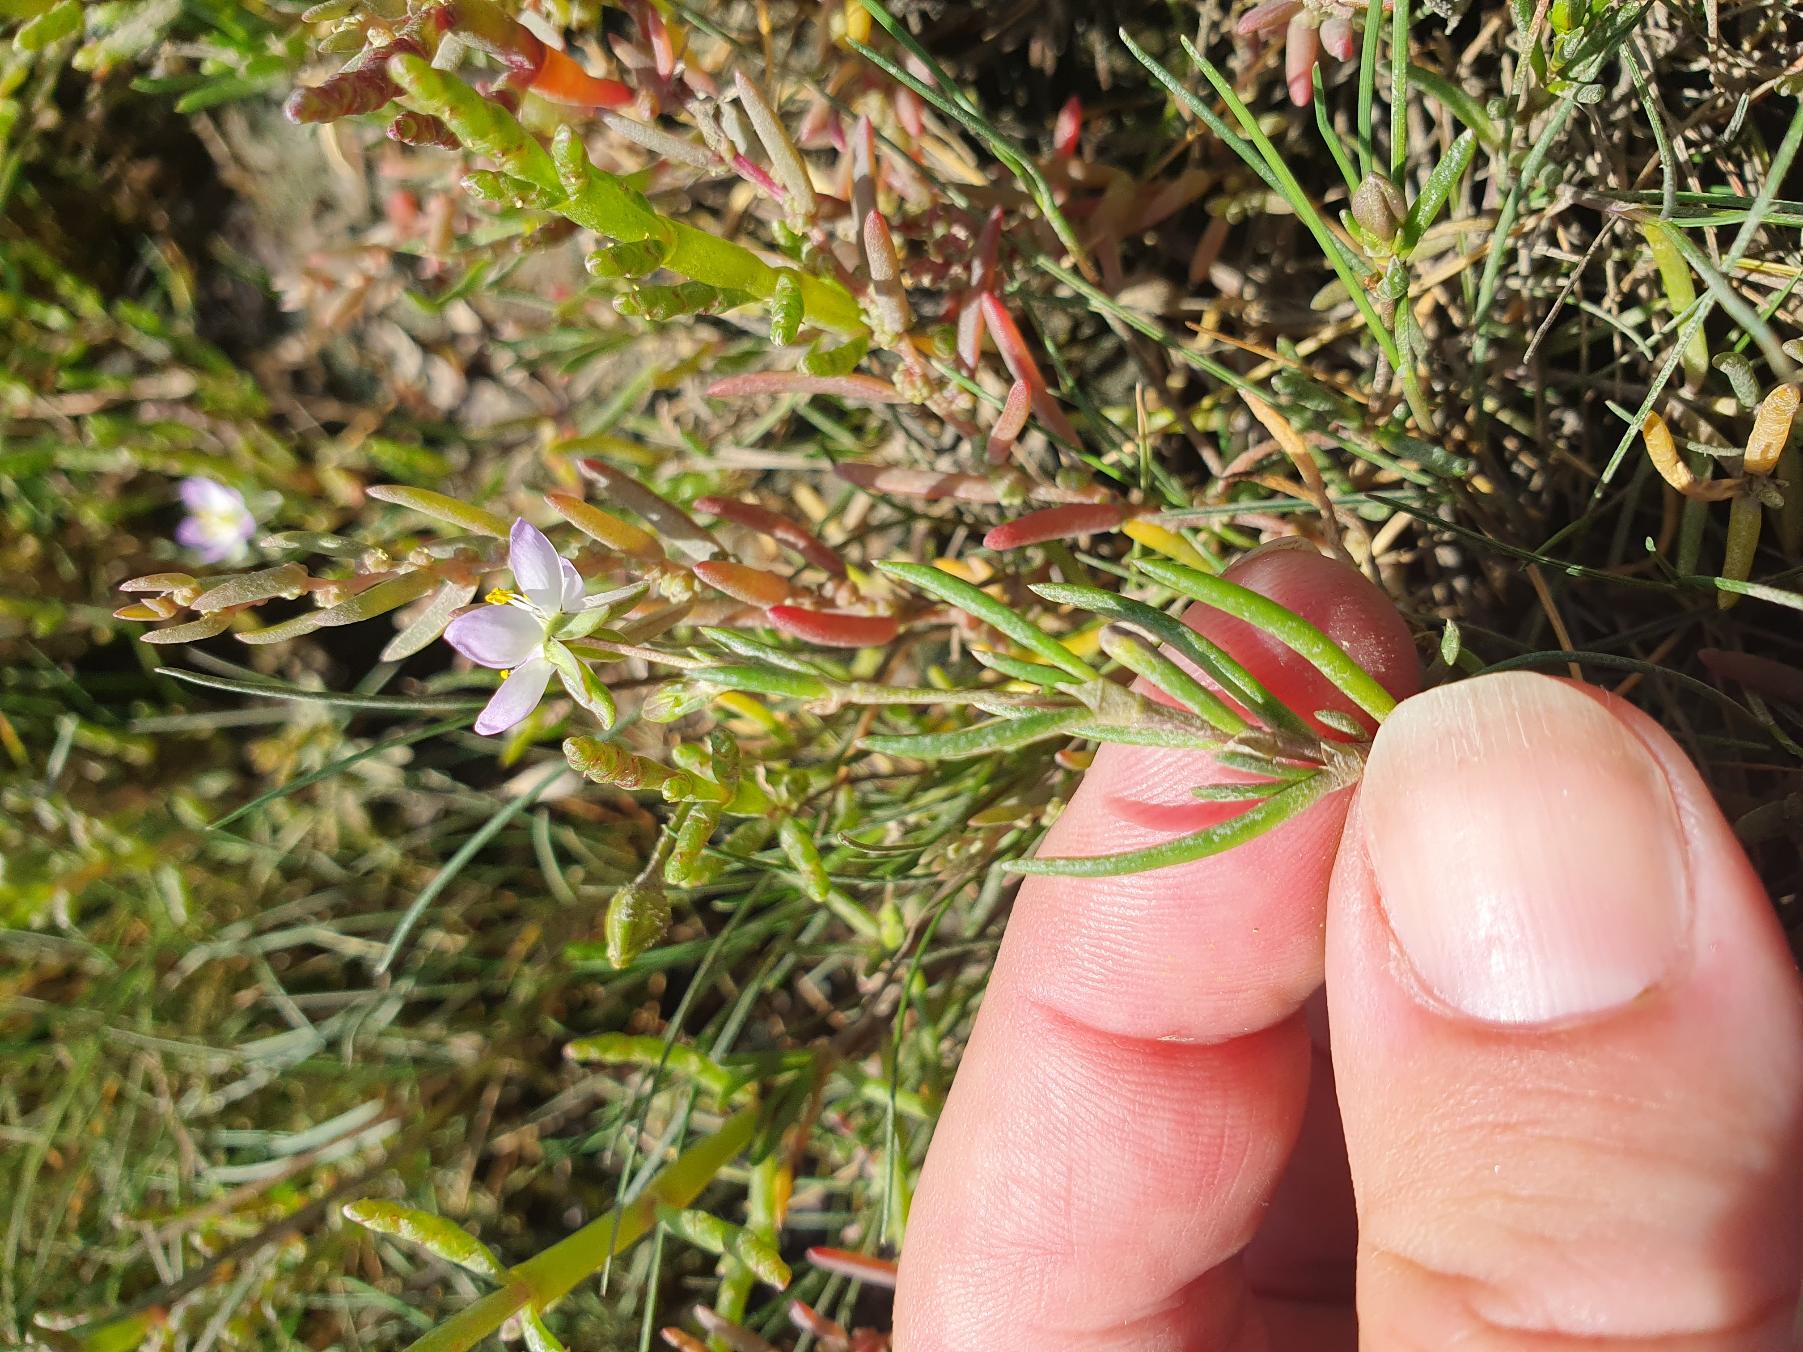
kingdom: Plantae
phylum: Tracheophyta
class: Magnoliopsida
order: Caryophyllales
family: Caryophyllaceae
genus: Spergularia
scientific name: Spergularia media
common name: Vingefrøet hindeknæ
